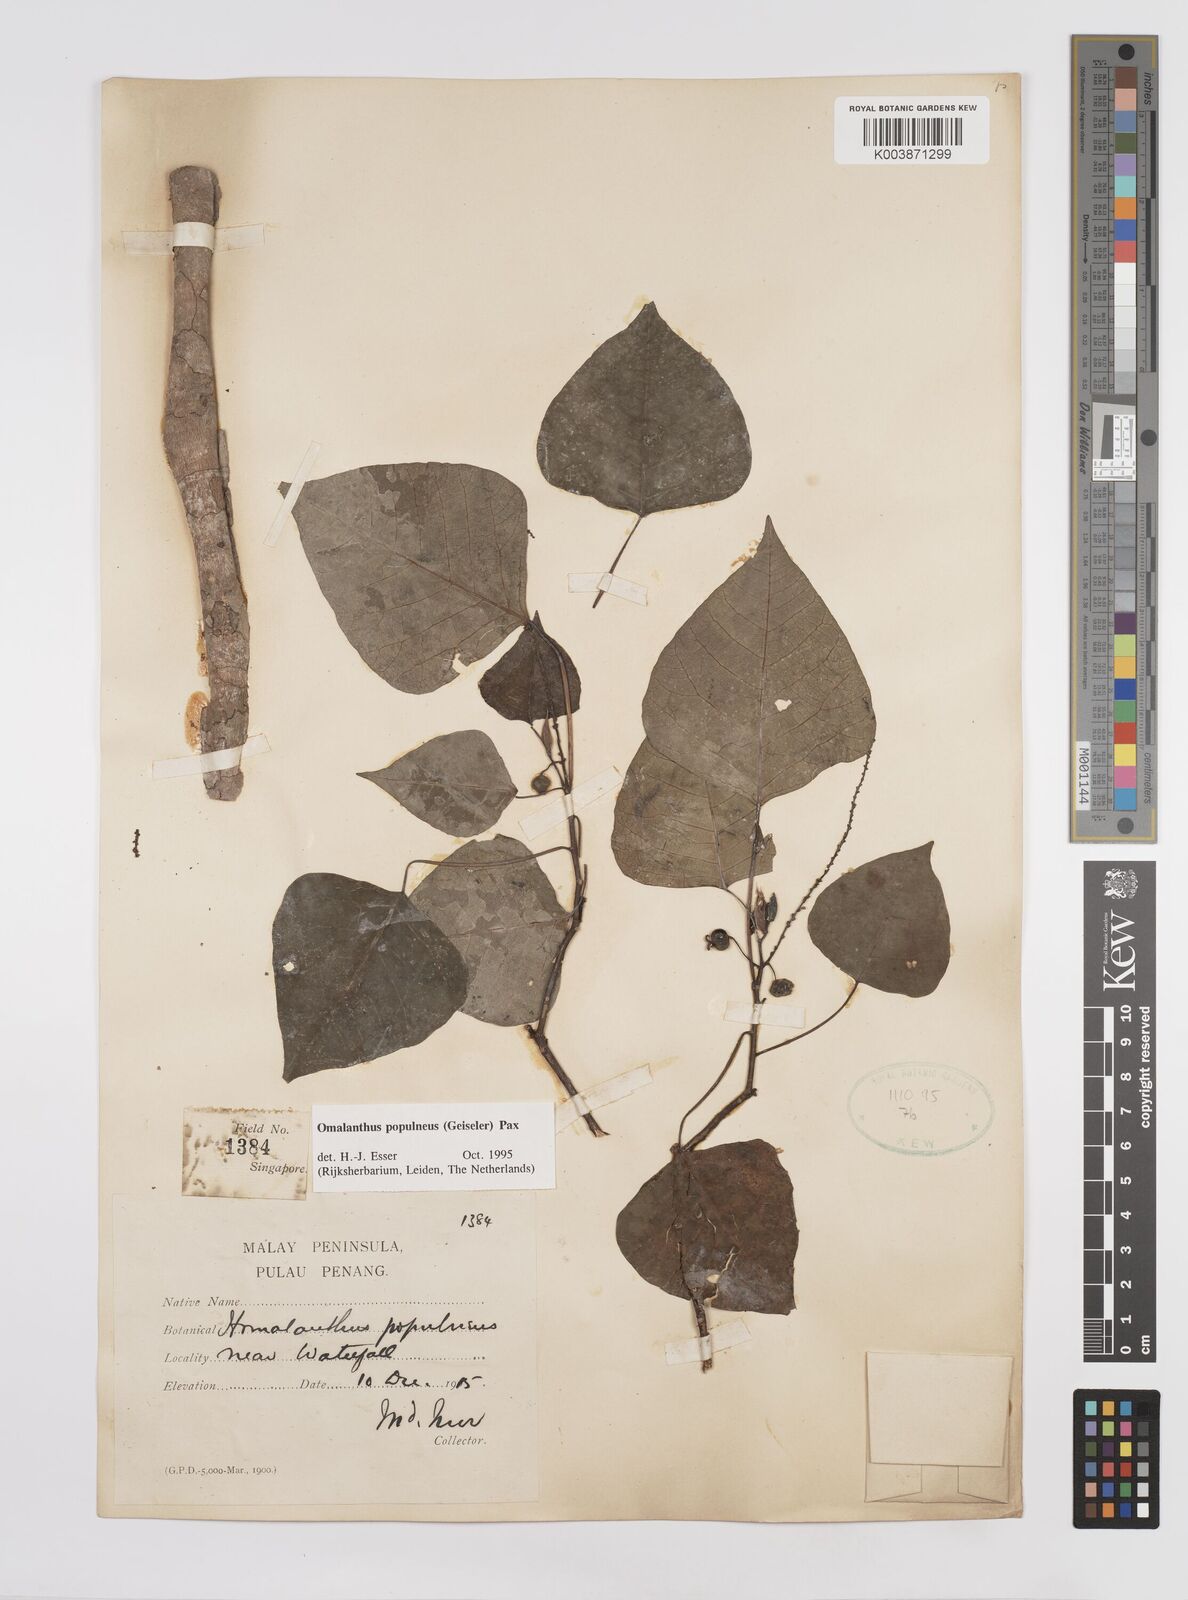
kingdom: Plantae
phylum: Tracheophyta
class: Magnoliopsida
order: Malpighiales
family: Euphorbiaceae
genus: Homalanthus
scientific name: Homalanthus populneus
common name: Spurge
